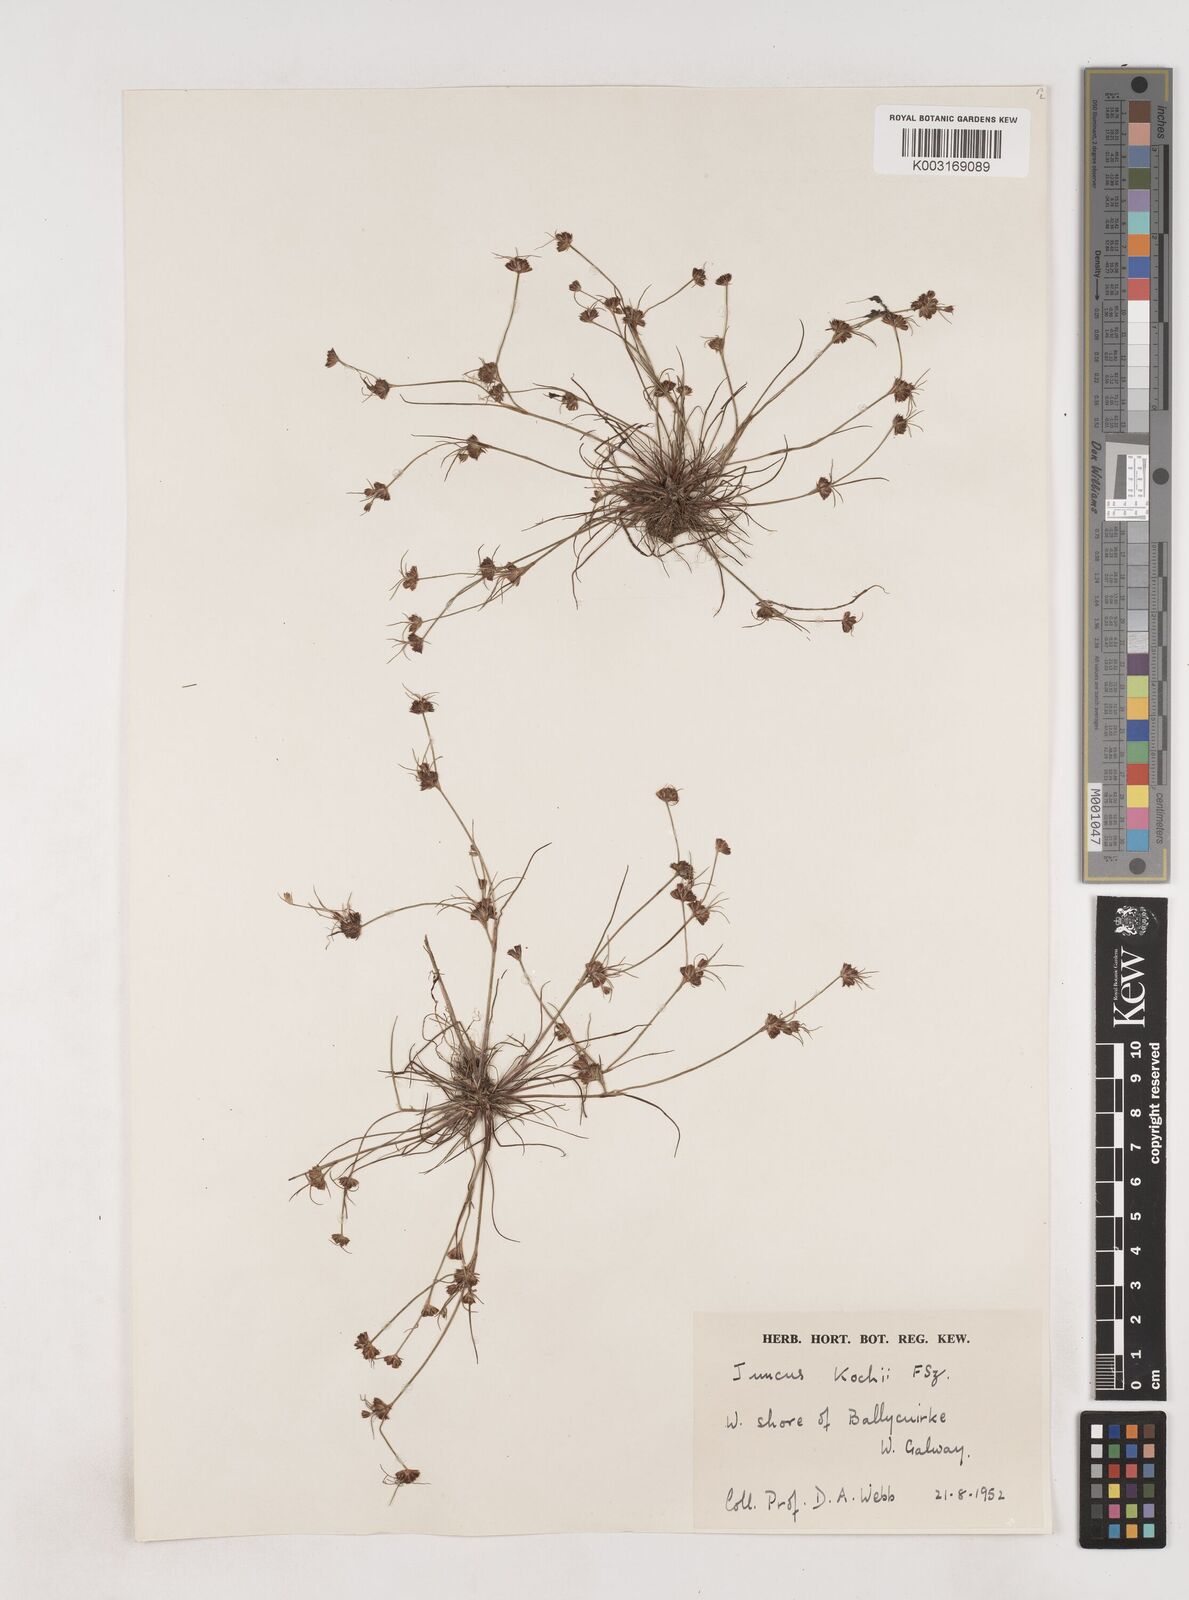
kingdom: Plantae
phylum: Tracheophyta
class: Liliopsida
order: Poales
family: Juncaceae
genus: Juncus
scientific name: Juncus bulbosus
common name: Bulbous rush
